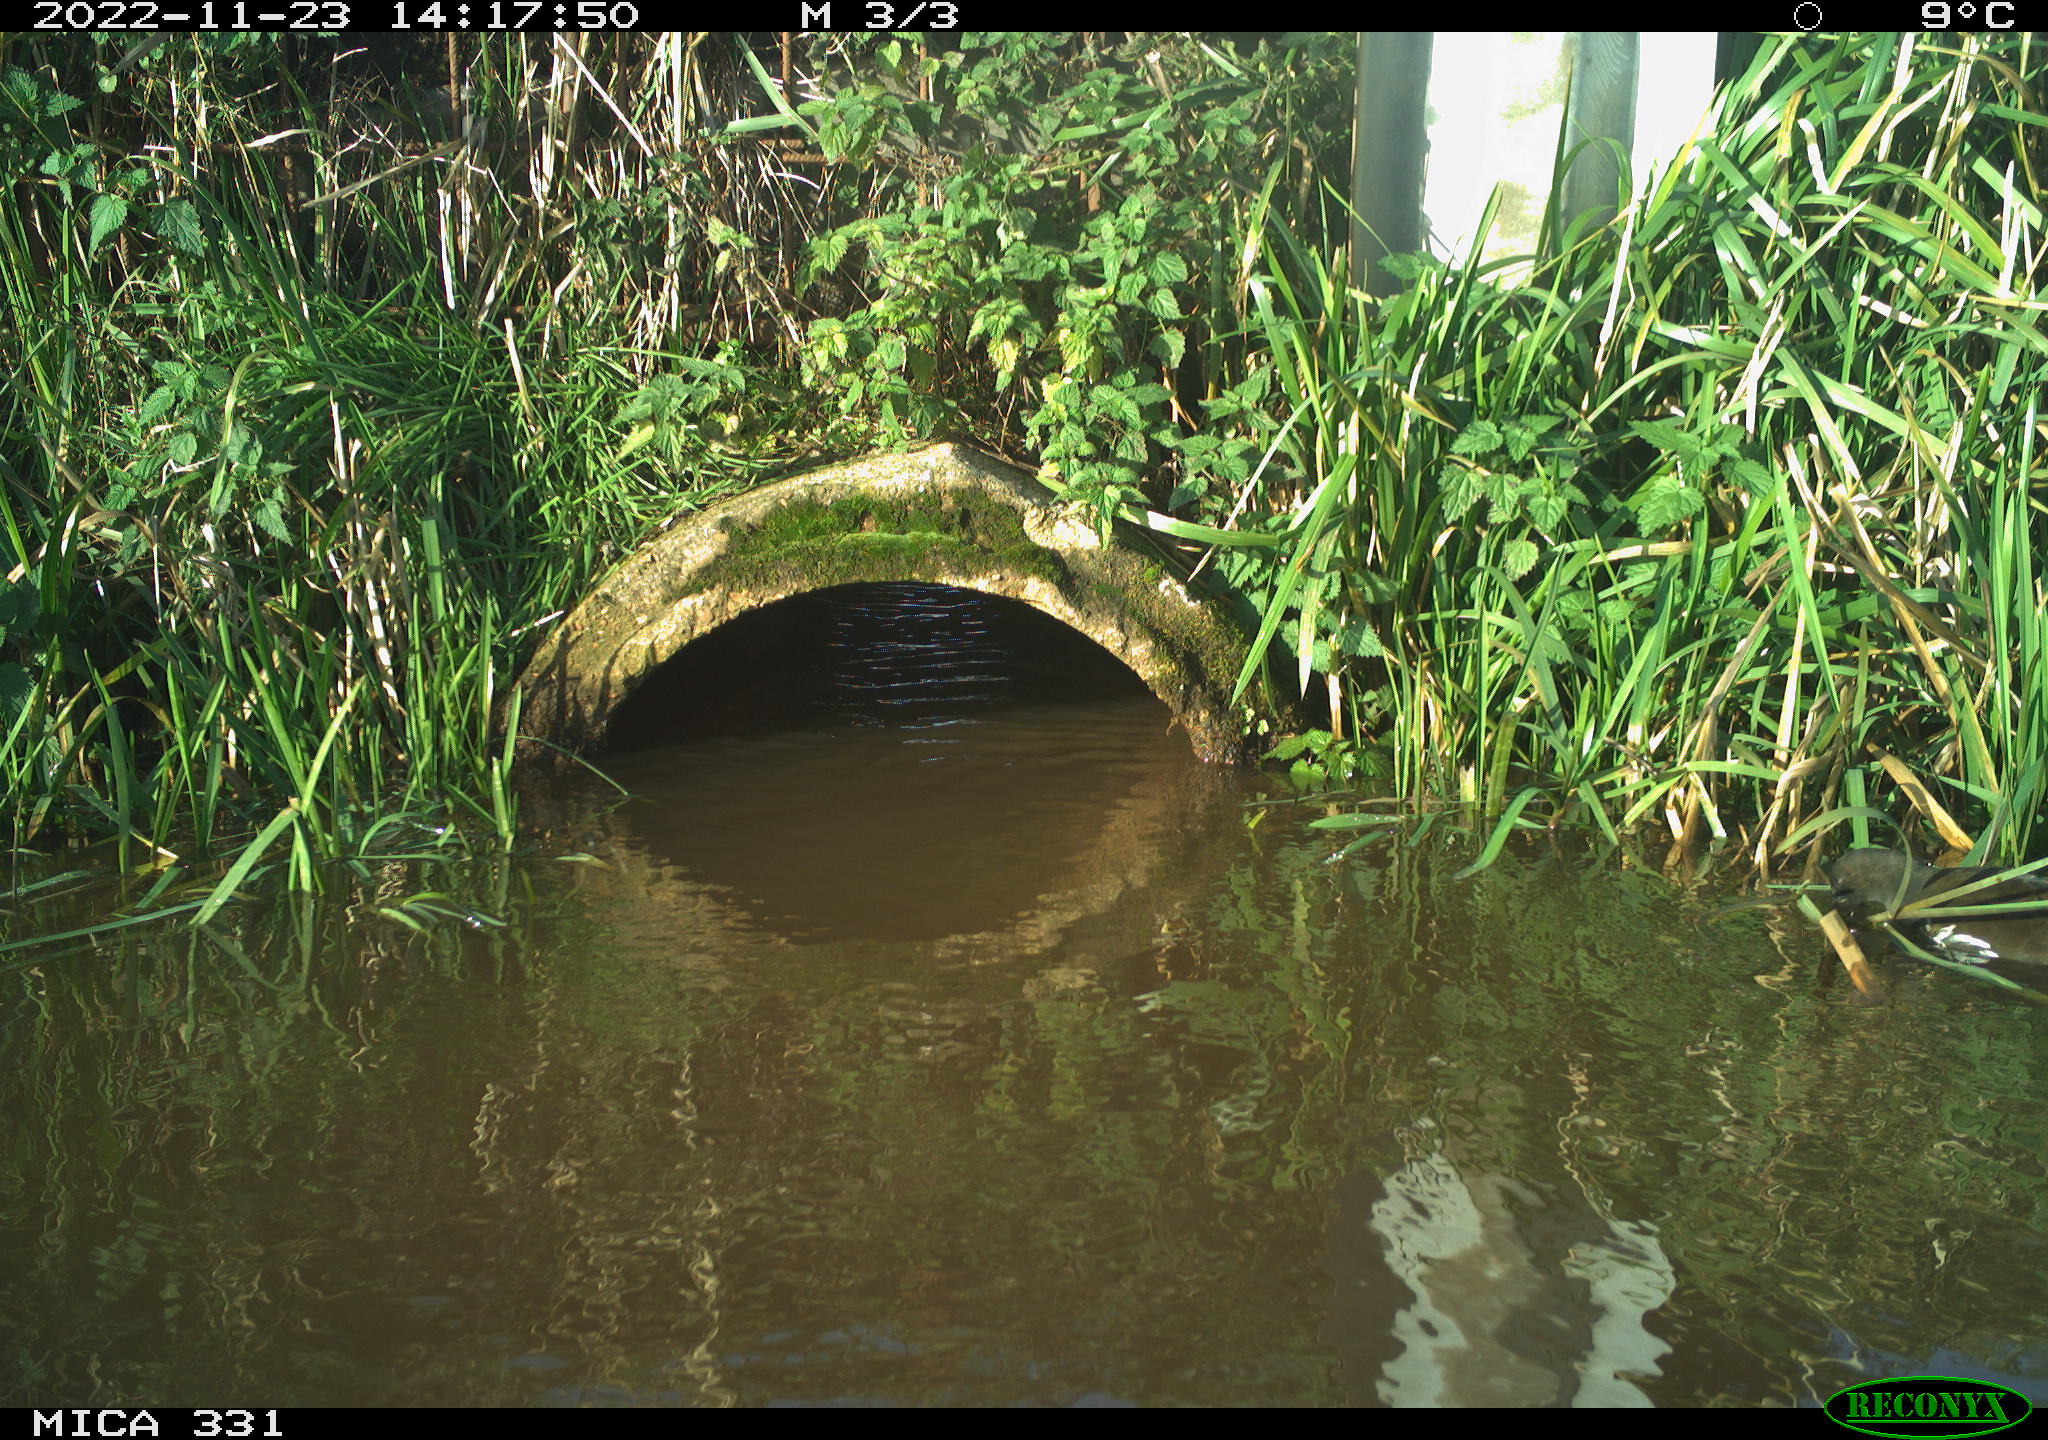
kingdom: Animalia
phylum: Chordata
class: Aves
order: Gruiformes
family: Rallidae
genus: Gallinula
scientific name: Gallinula chloropus
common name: Common moorhen
